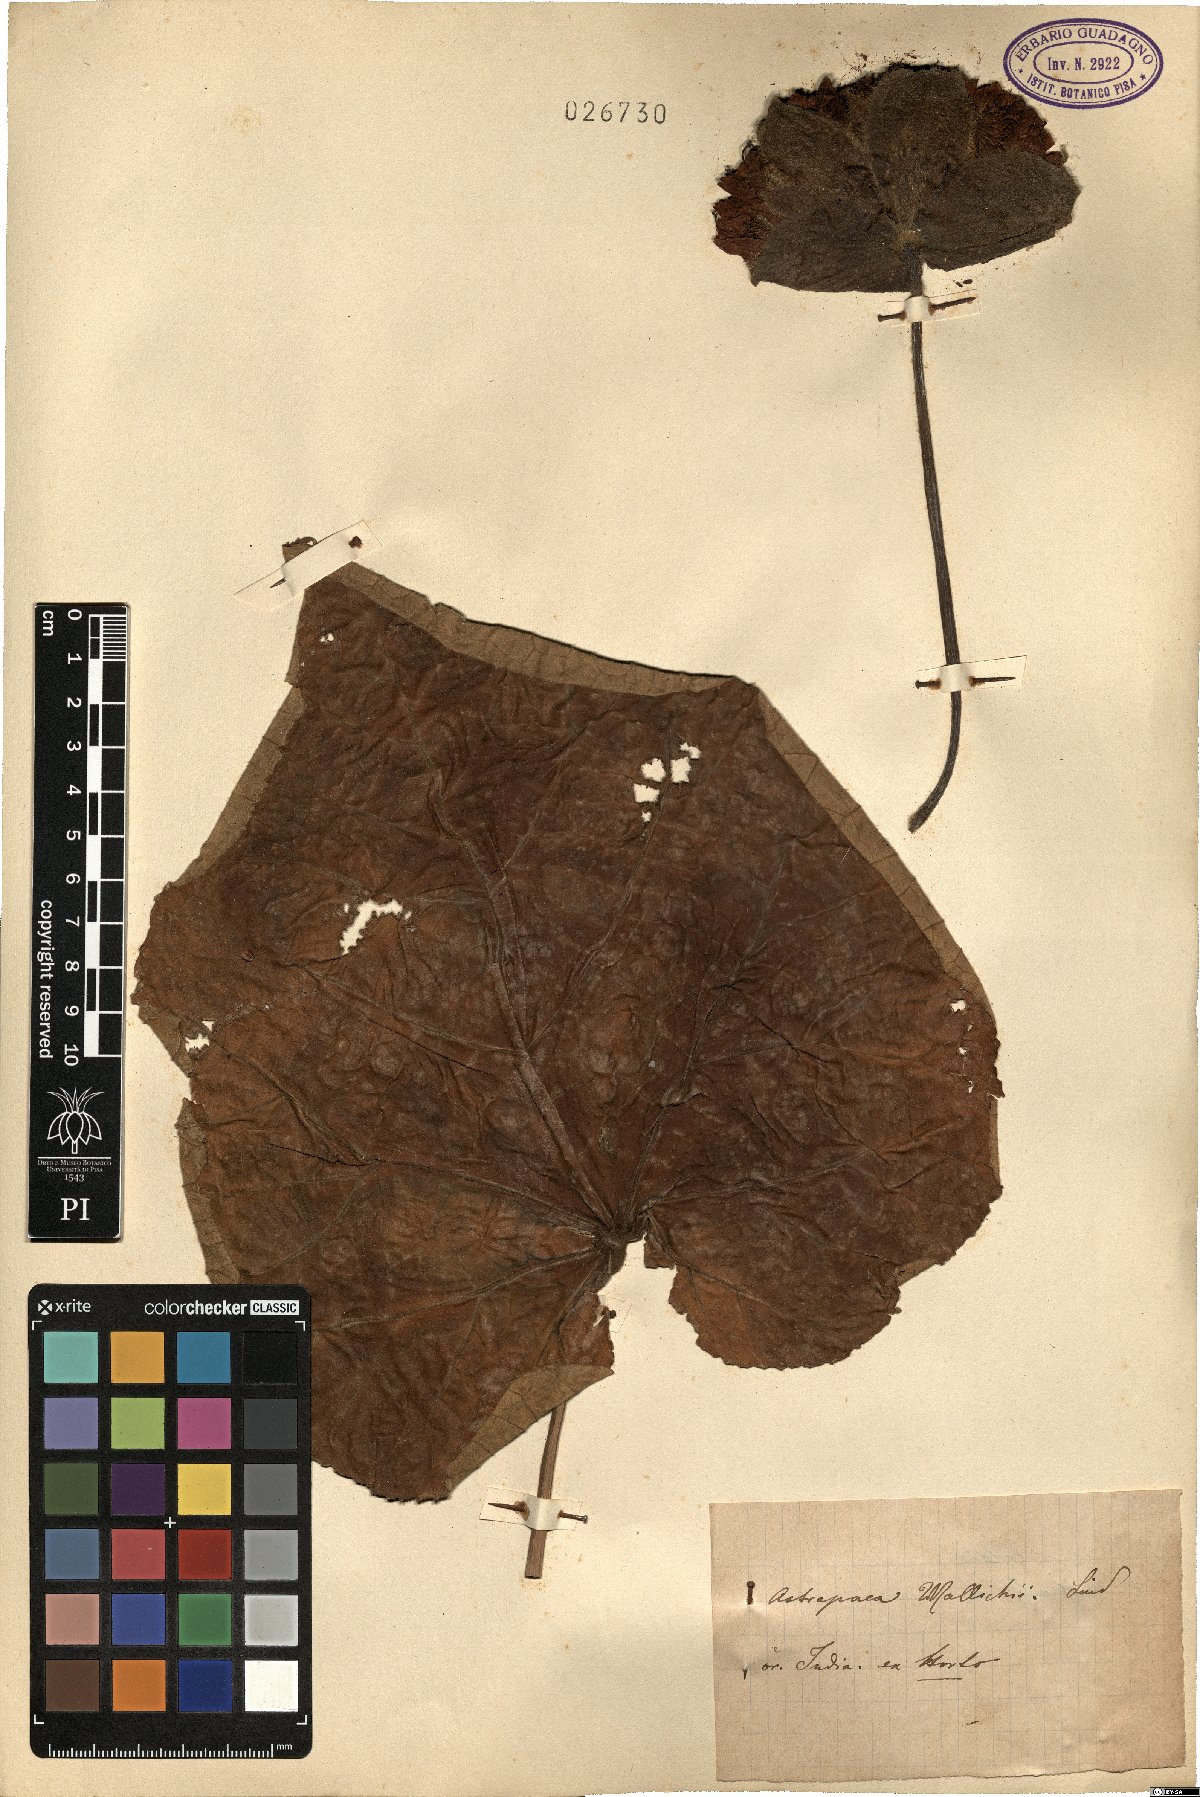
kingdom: Plantae
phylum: Tracheophyta
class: Magnoliopsida
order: Malvales
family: Malvaceae
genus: Dombeya
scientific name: Dombeya wallichii
